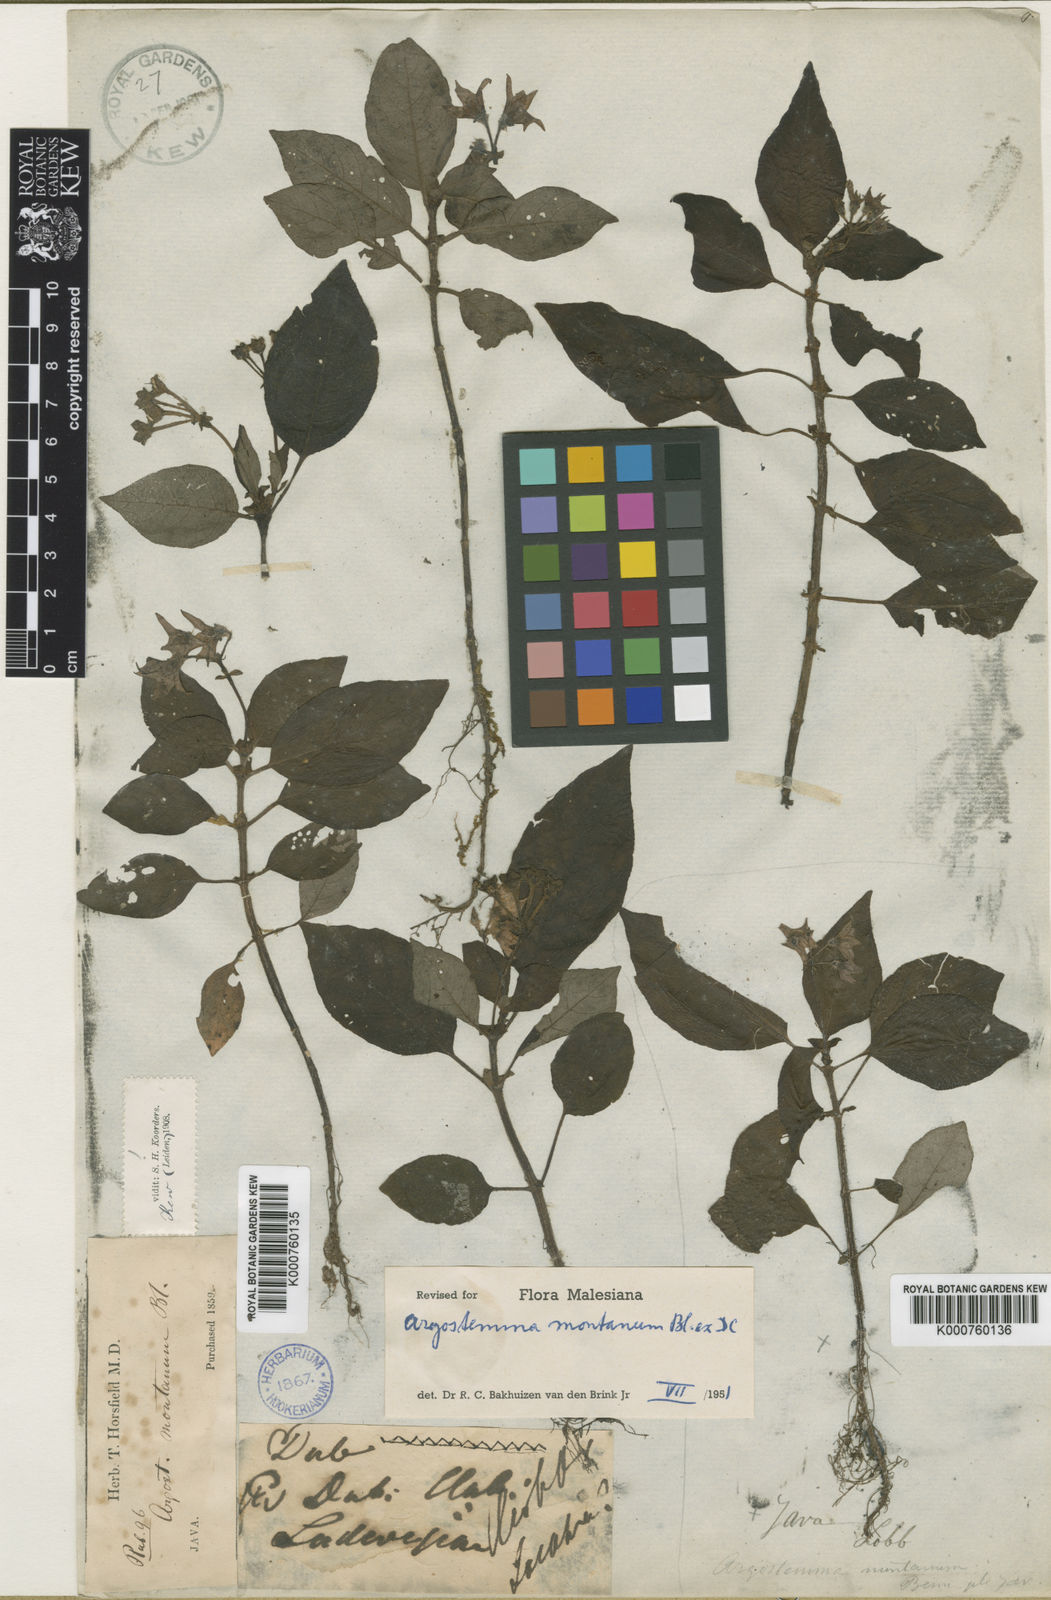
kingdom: Plantae
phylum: Tracheophyta
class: Magnoliopsida
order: Gentianales
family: Rubiaceae
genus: Argostemma
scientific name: Argostemma montanum
